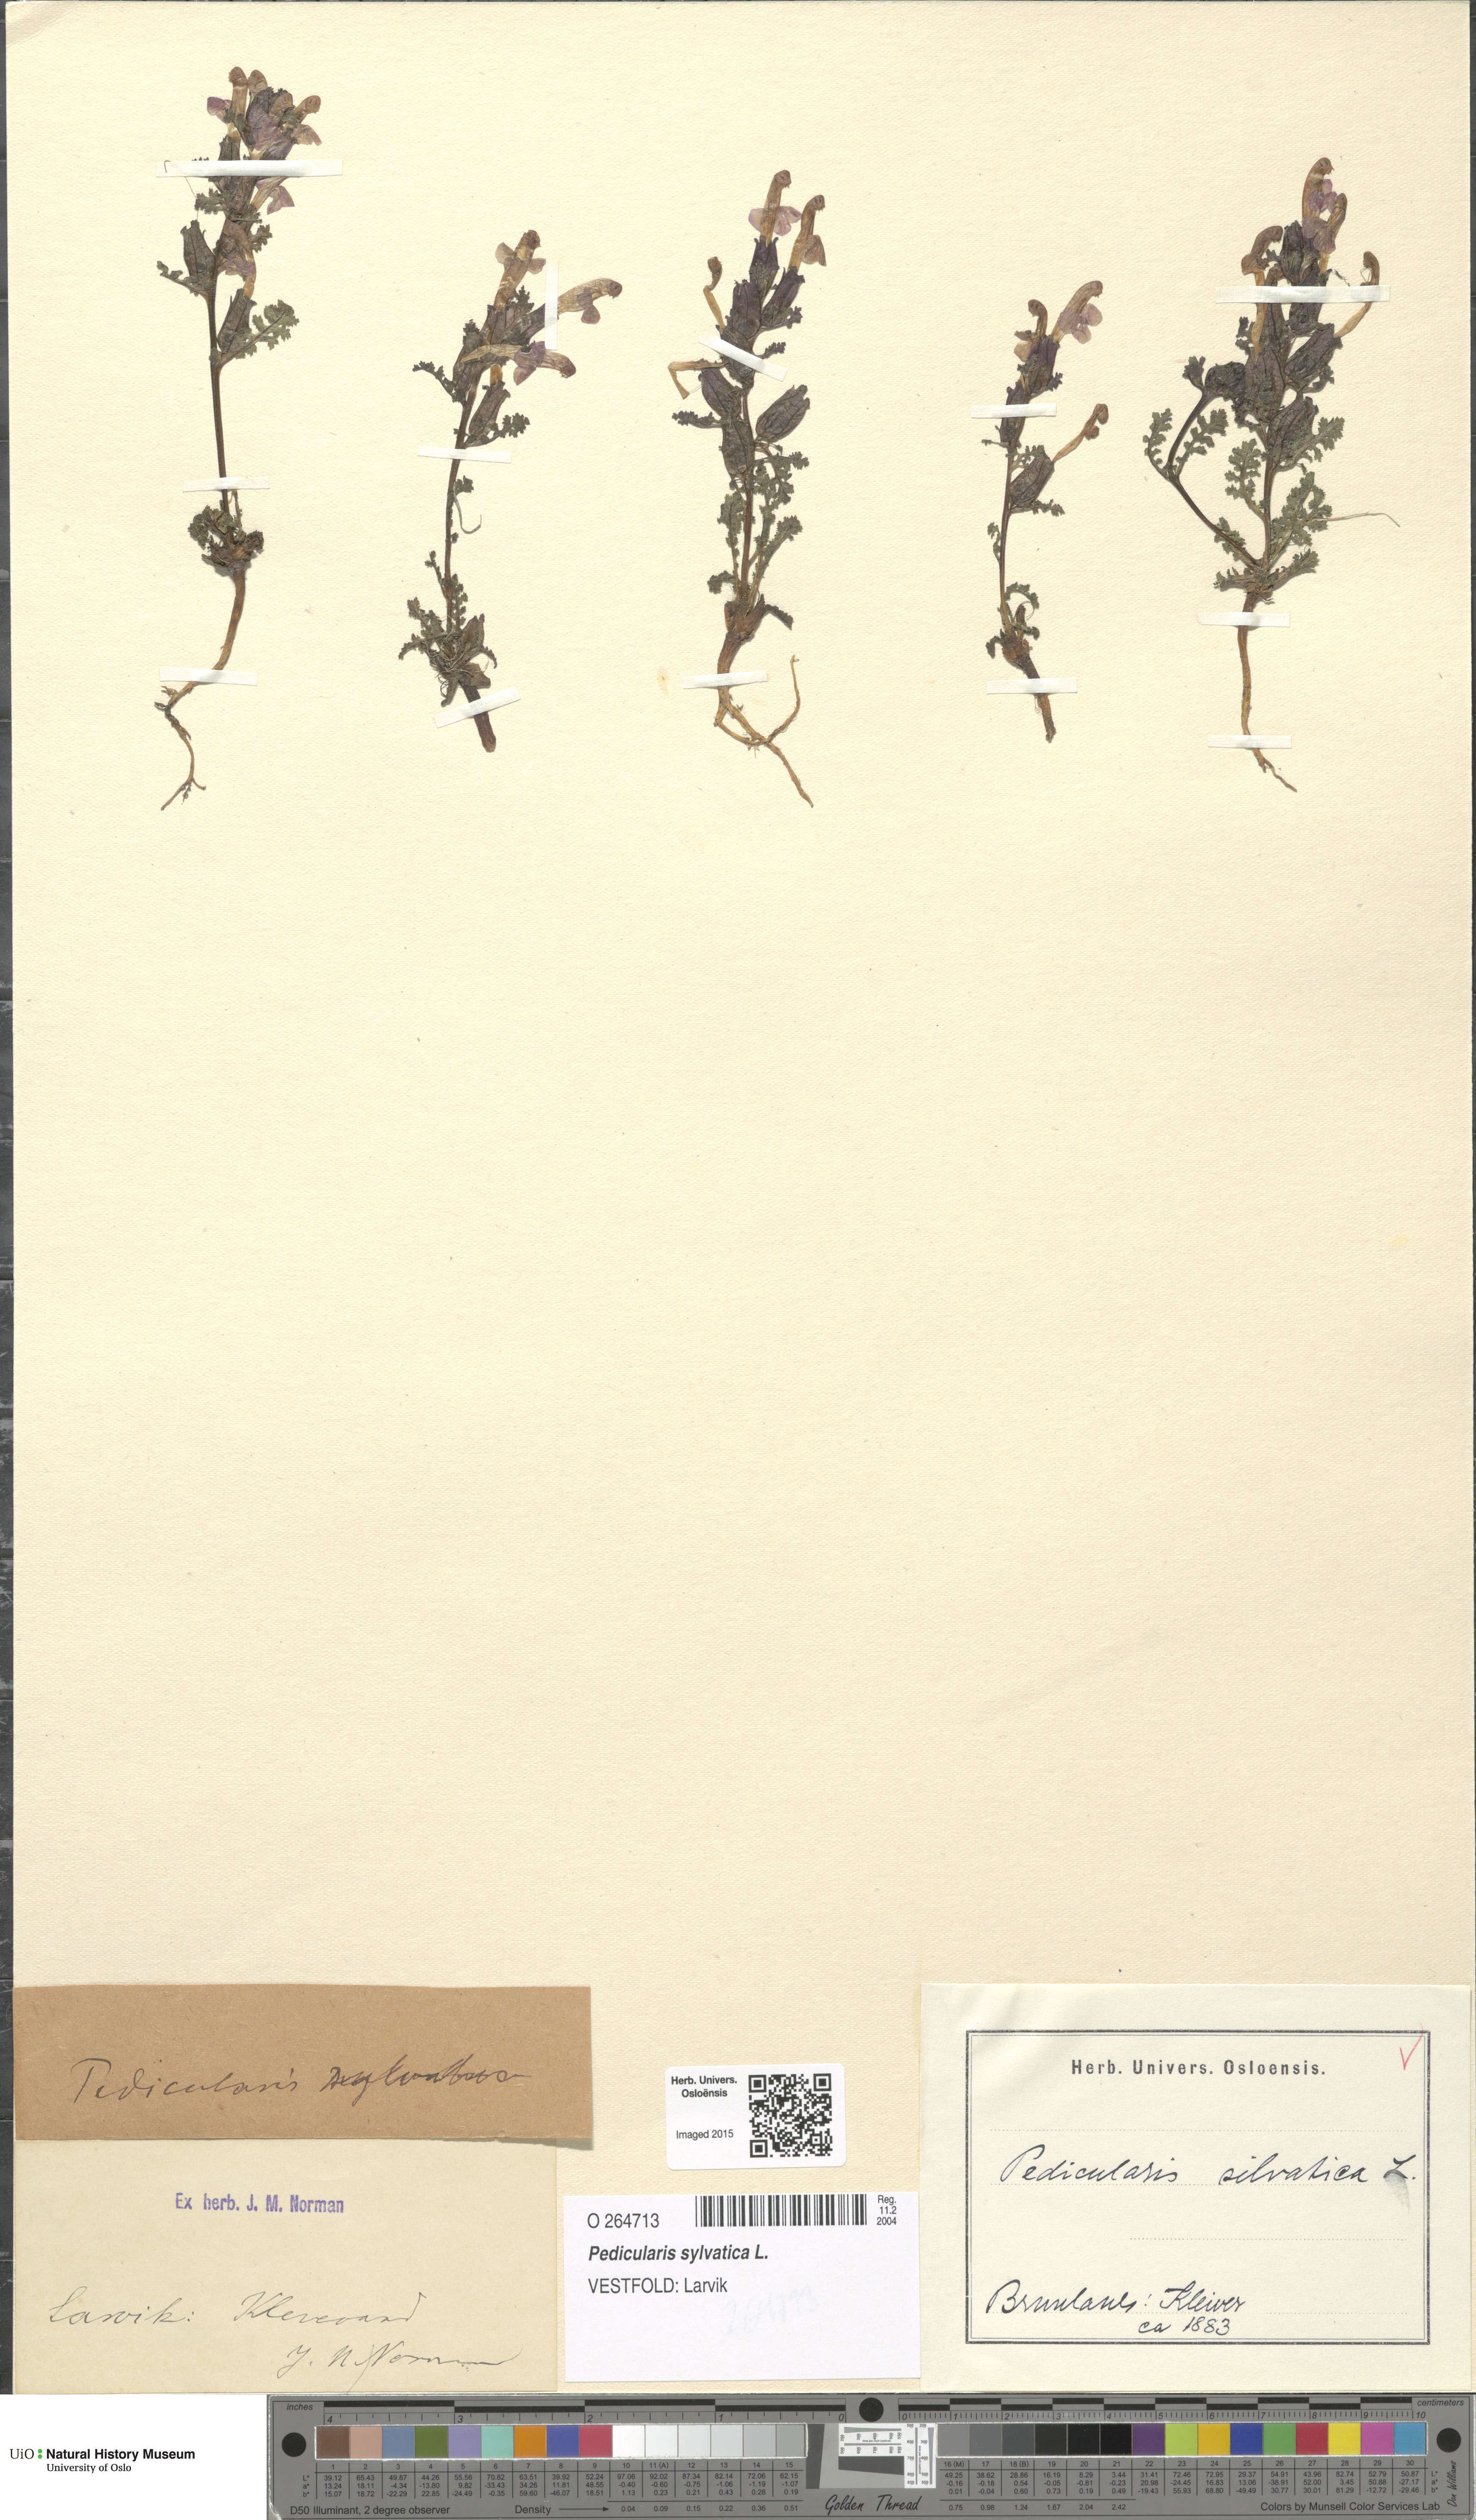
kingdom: Plantae
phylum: Tracheophyta
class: Magnoliopsida
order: Lamiales
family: Orobanchaceae
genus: Pedicularis
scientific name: Pedicularis sylvatica
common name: Lousewort
